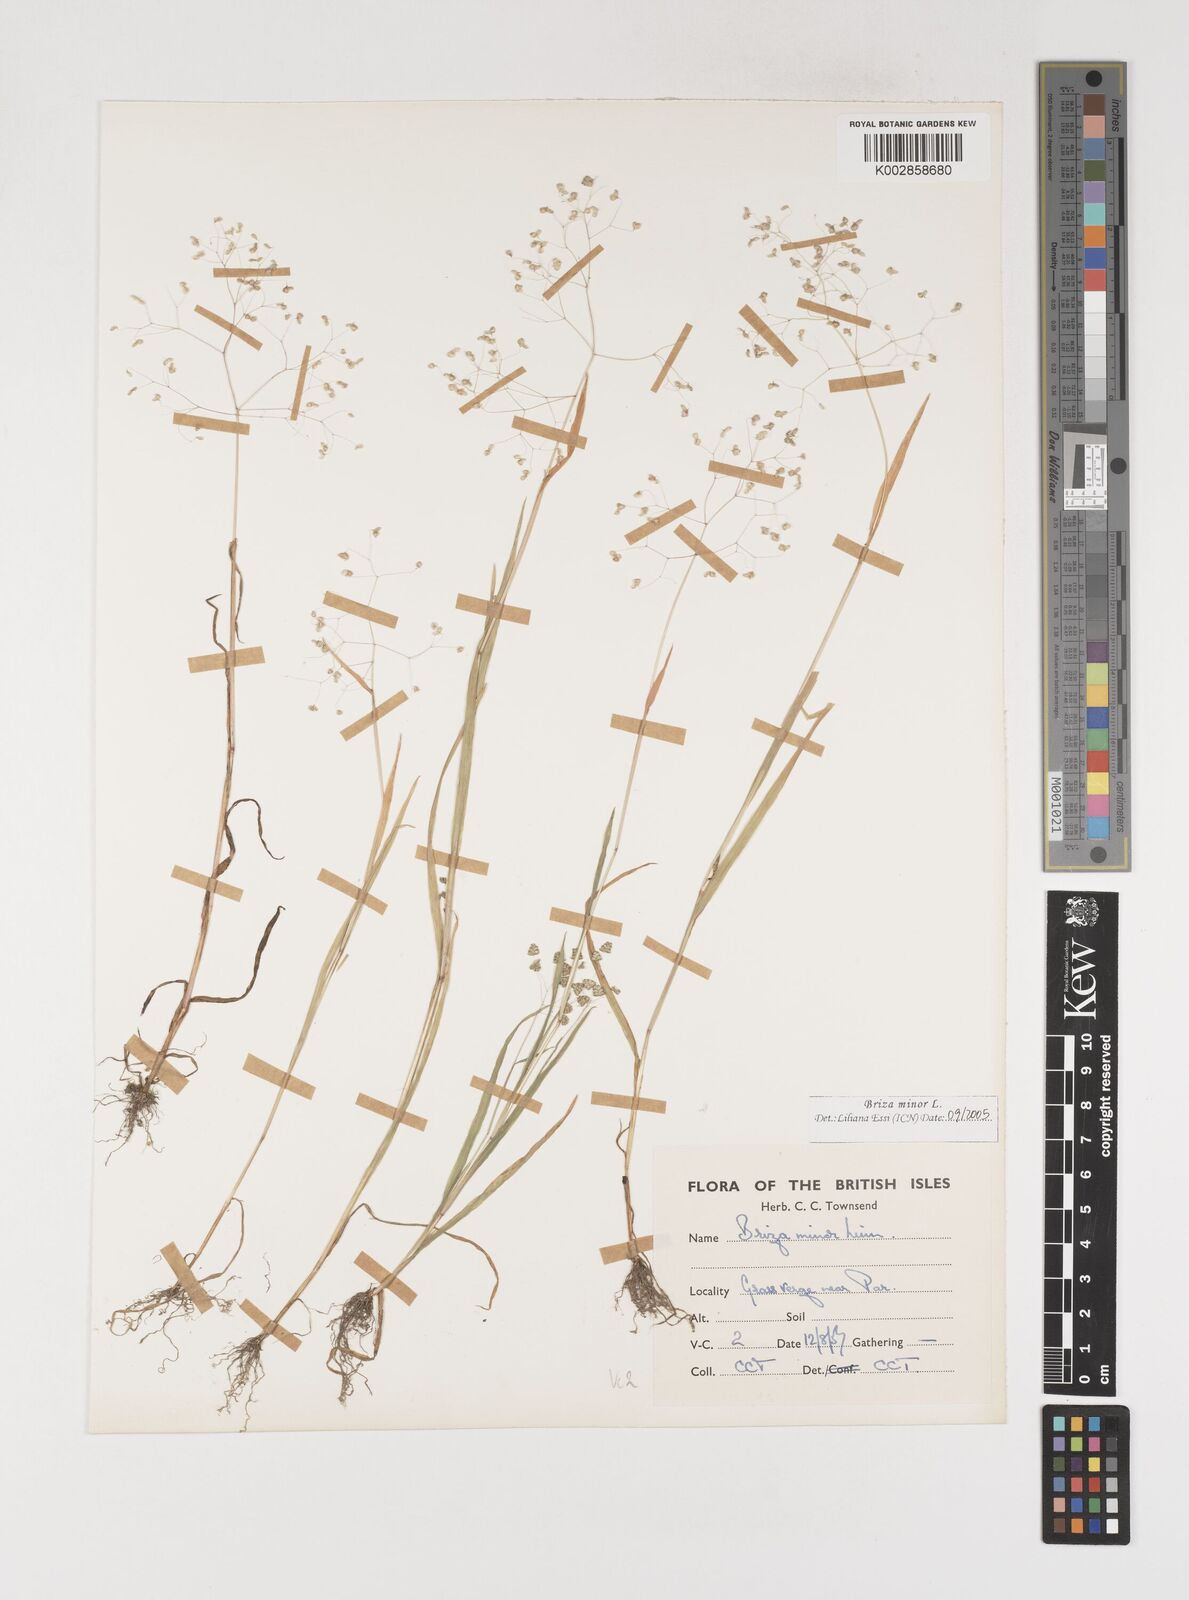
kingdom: Plantae
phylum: Tracheophyta
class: Liliopsida
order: Poales
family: Poaceae
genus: Briza
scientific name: Briza minor
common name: Lesser quaking-grass
